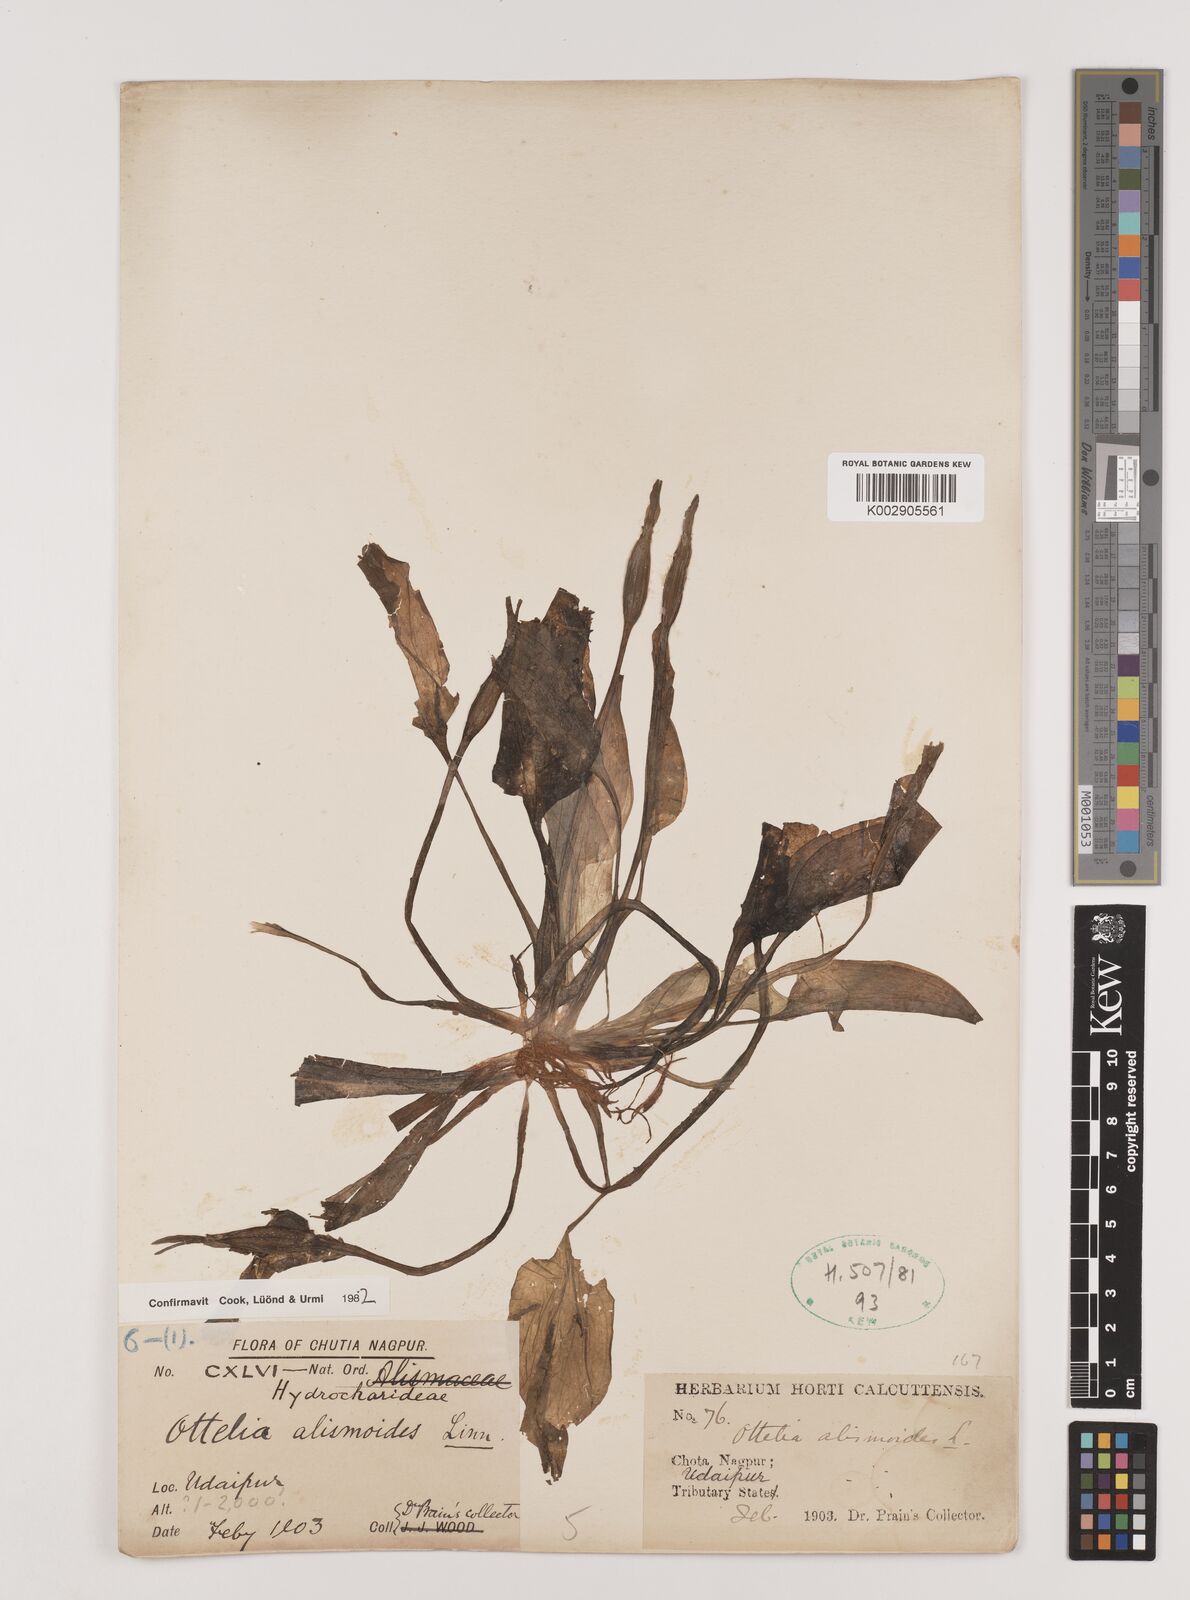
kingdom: Plantae
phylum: Tracheophyta
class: Liliopsida
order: Alismatales
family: Hydrocharitaceae
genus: Ottelia
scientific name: Ottelia alismoides
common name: Duck-lettuce
